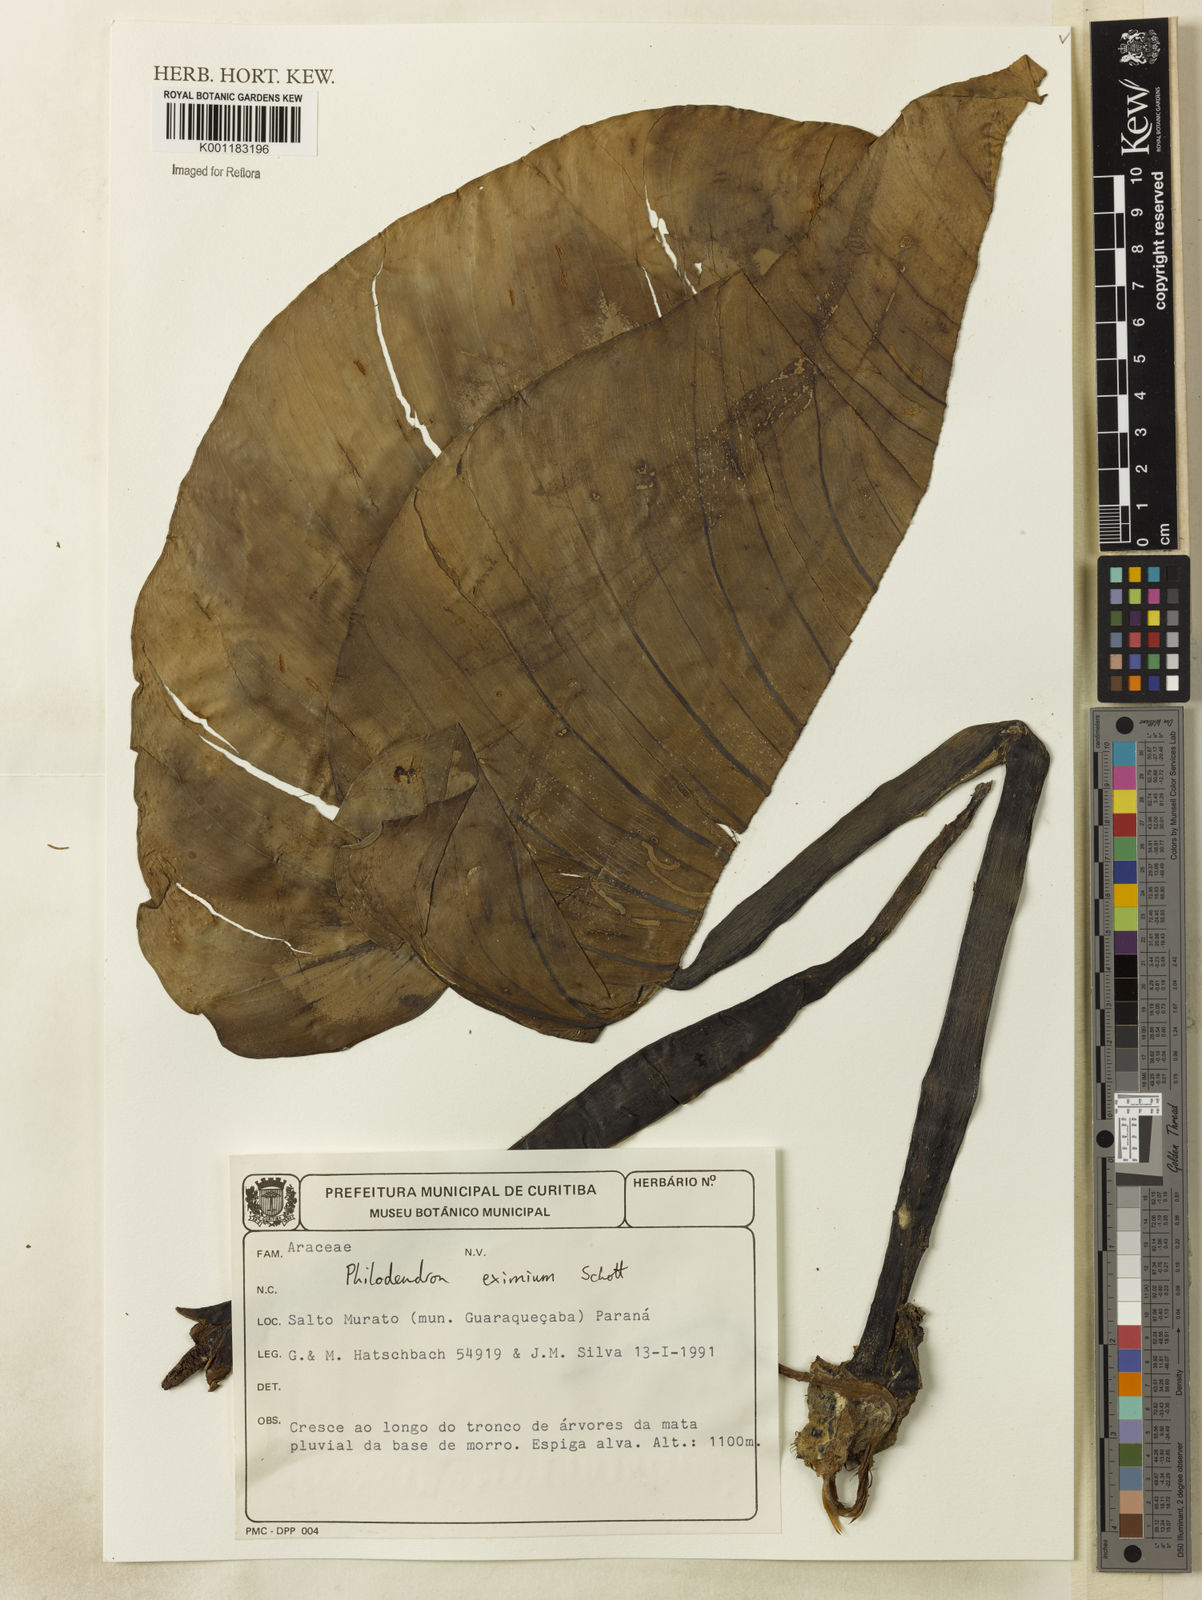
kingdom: Plantae
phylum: Tracheophyta
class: Liliopsida
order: Alismatales
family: Araceae
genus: Philodendron
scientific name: Philodendron eximium
